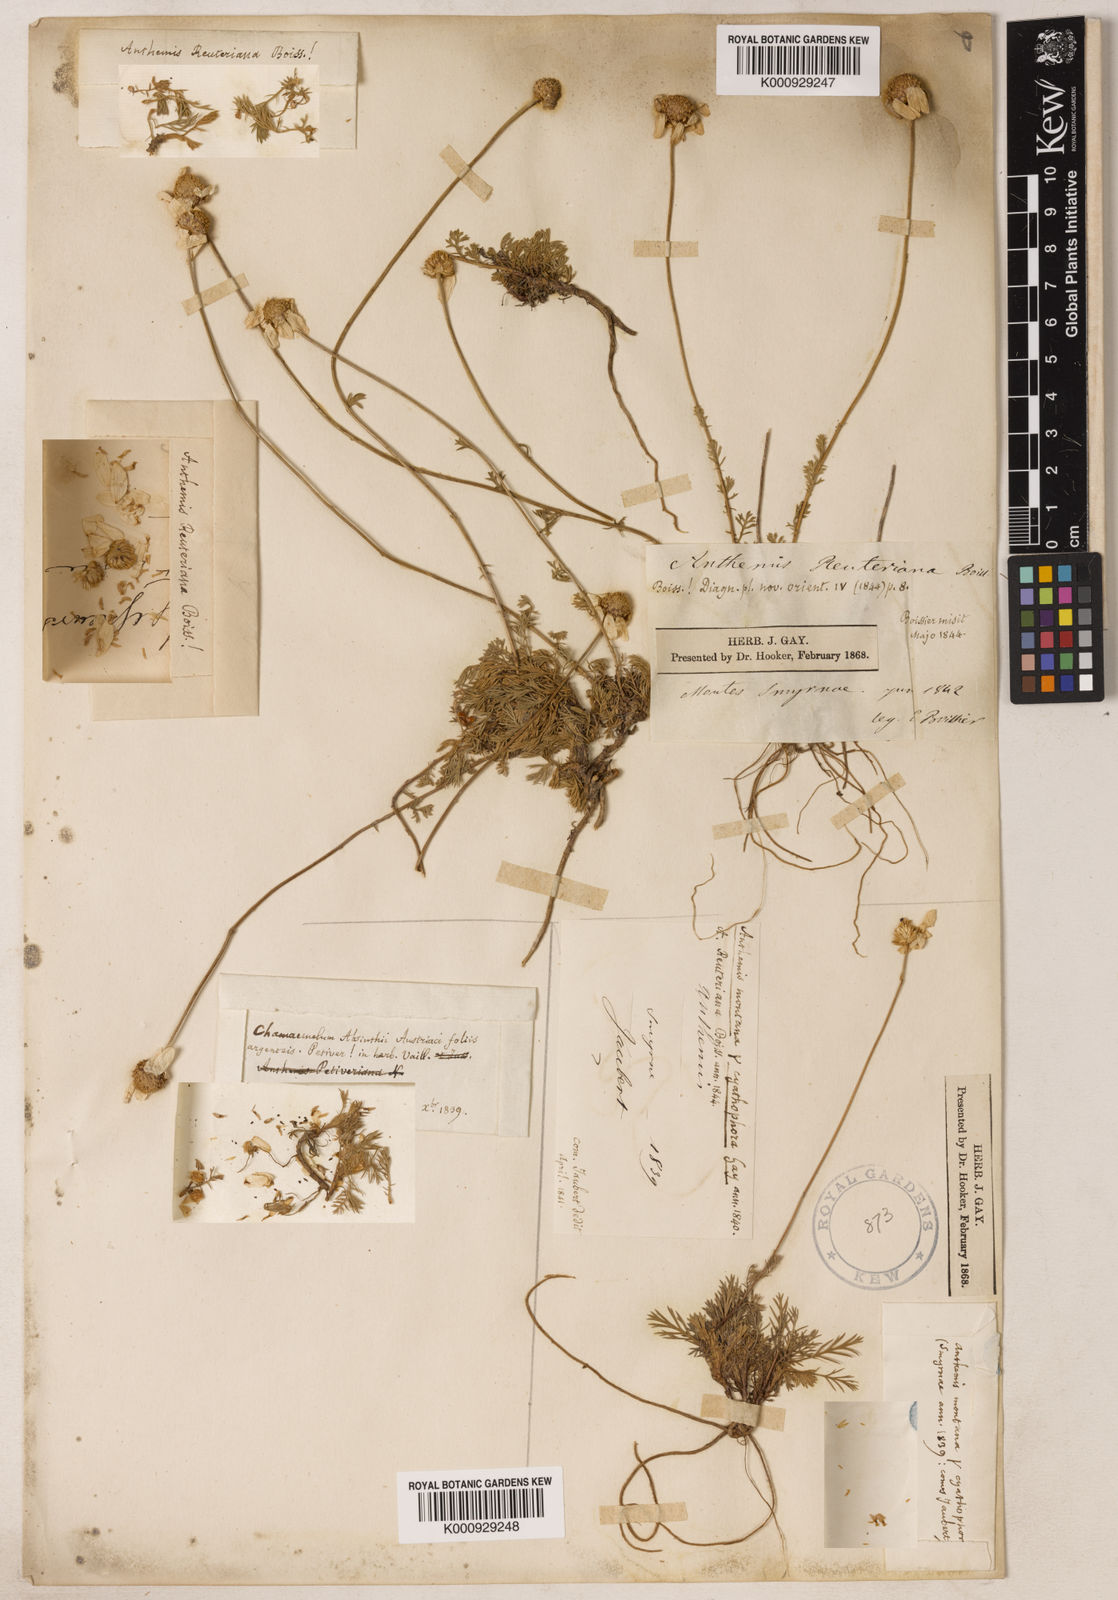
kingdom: Plantae
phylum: Tracheophyta
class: Magnoliopsida
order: Asterales
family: Asteraceae
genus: Anthemis
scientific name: Anthemis cretica
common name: Mountain dog-daisy
